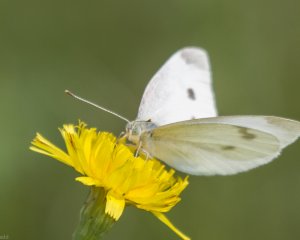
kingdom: Animalia
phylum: Arthropoda
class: Insecta
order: Lepidoptera
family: Pieridae
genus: Pieris
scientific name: Pieris rapae
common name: Cabbage White
